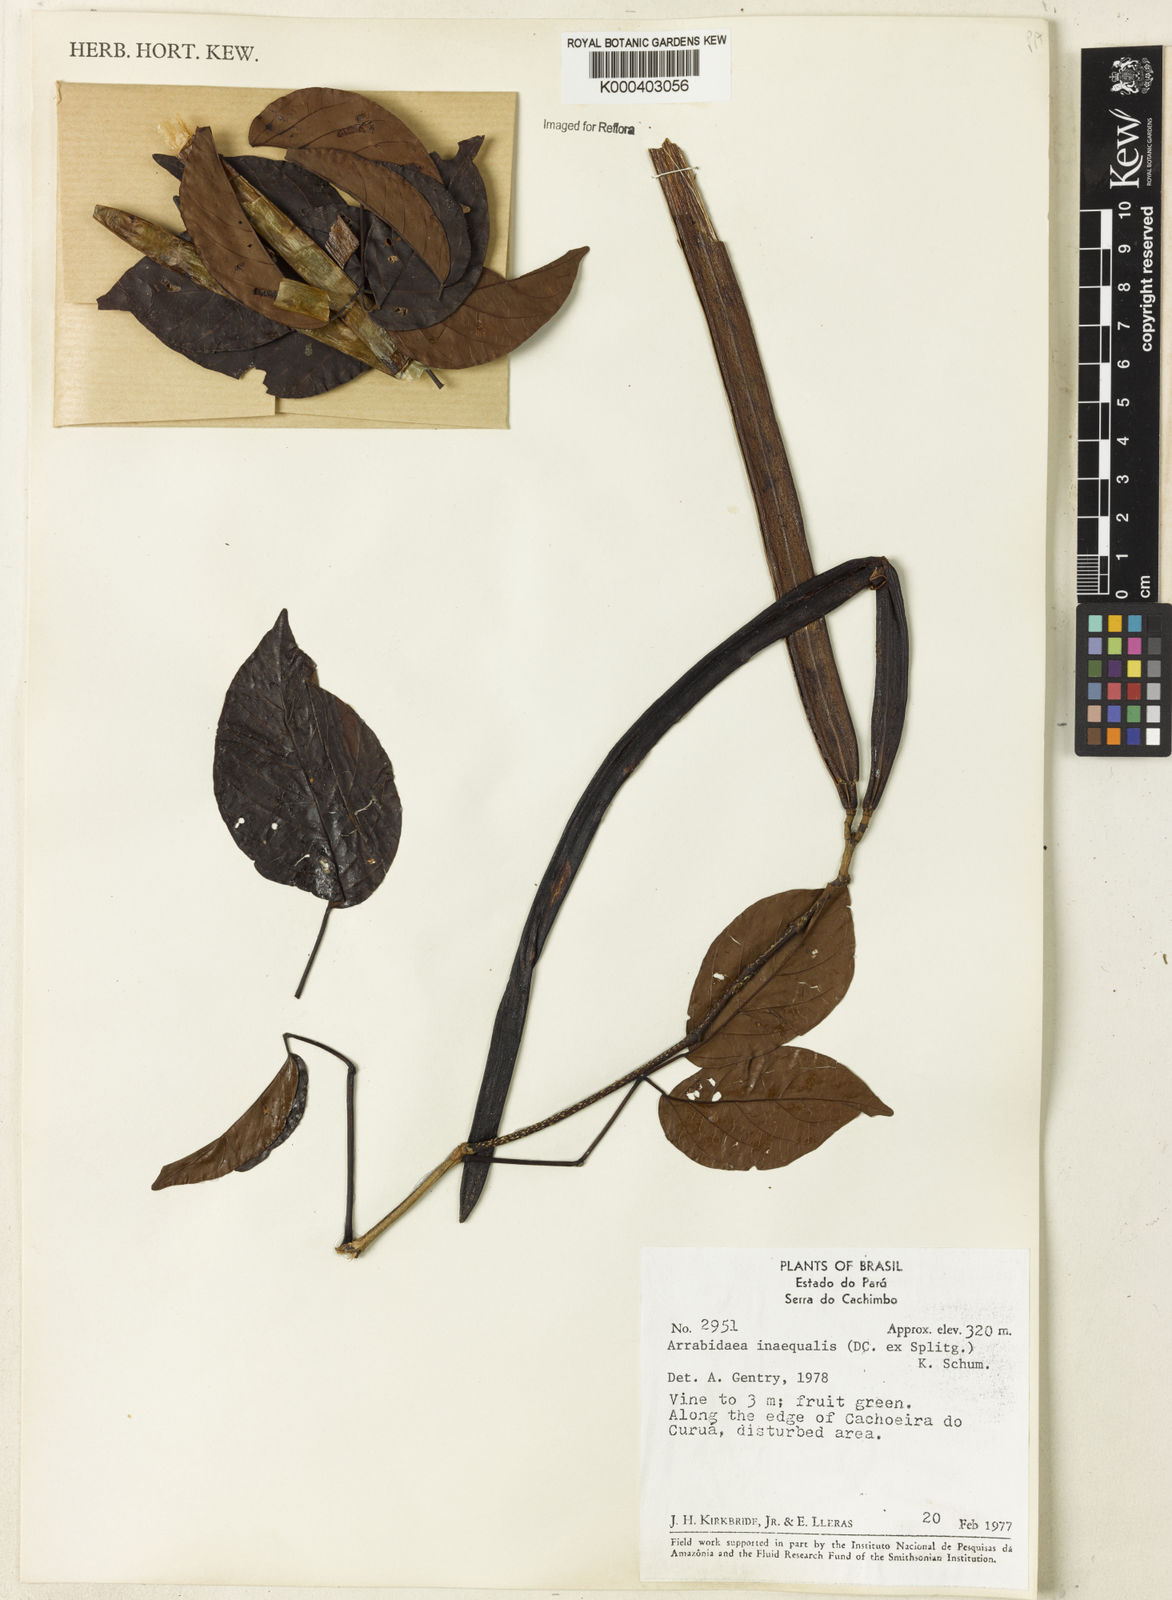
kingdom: Plantae
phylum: Tracheophyta
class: Magnoliopsida
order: Lamiales
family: Bignoniaceae
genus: Cuspidaria
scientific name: Cuspidaria inaequalis
